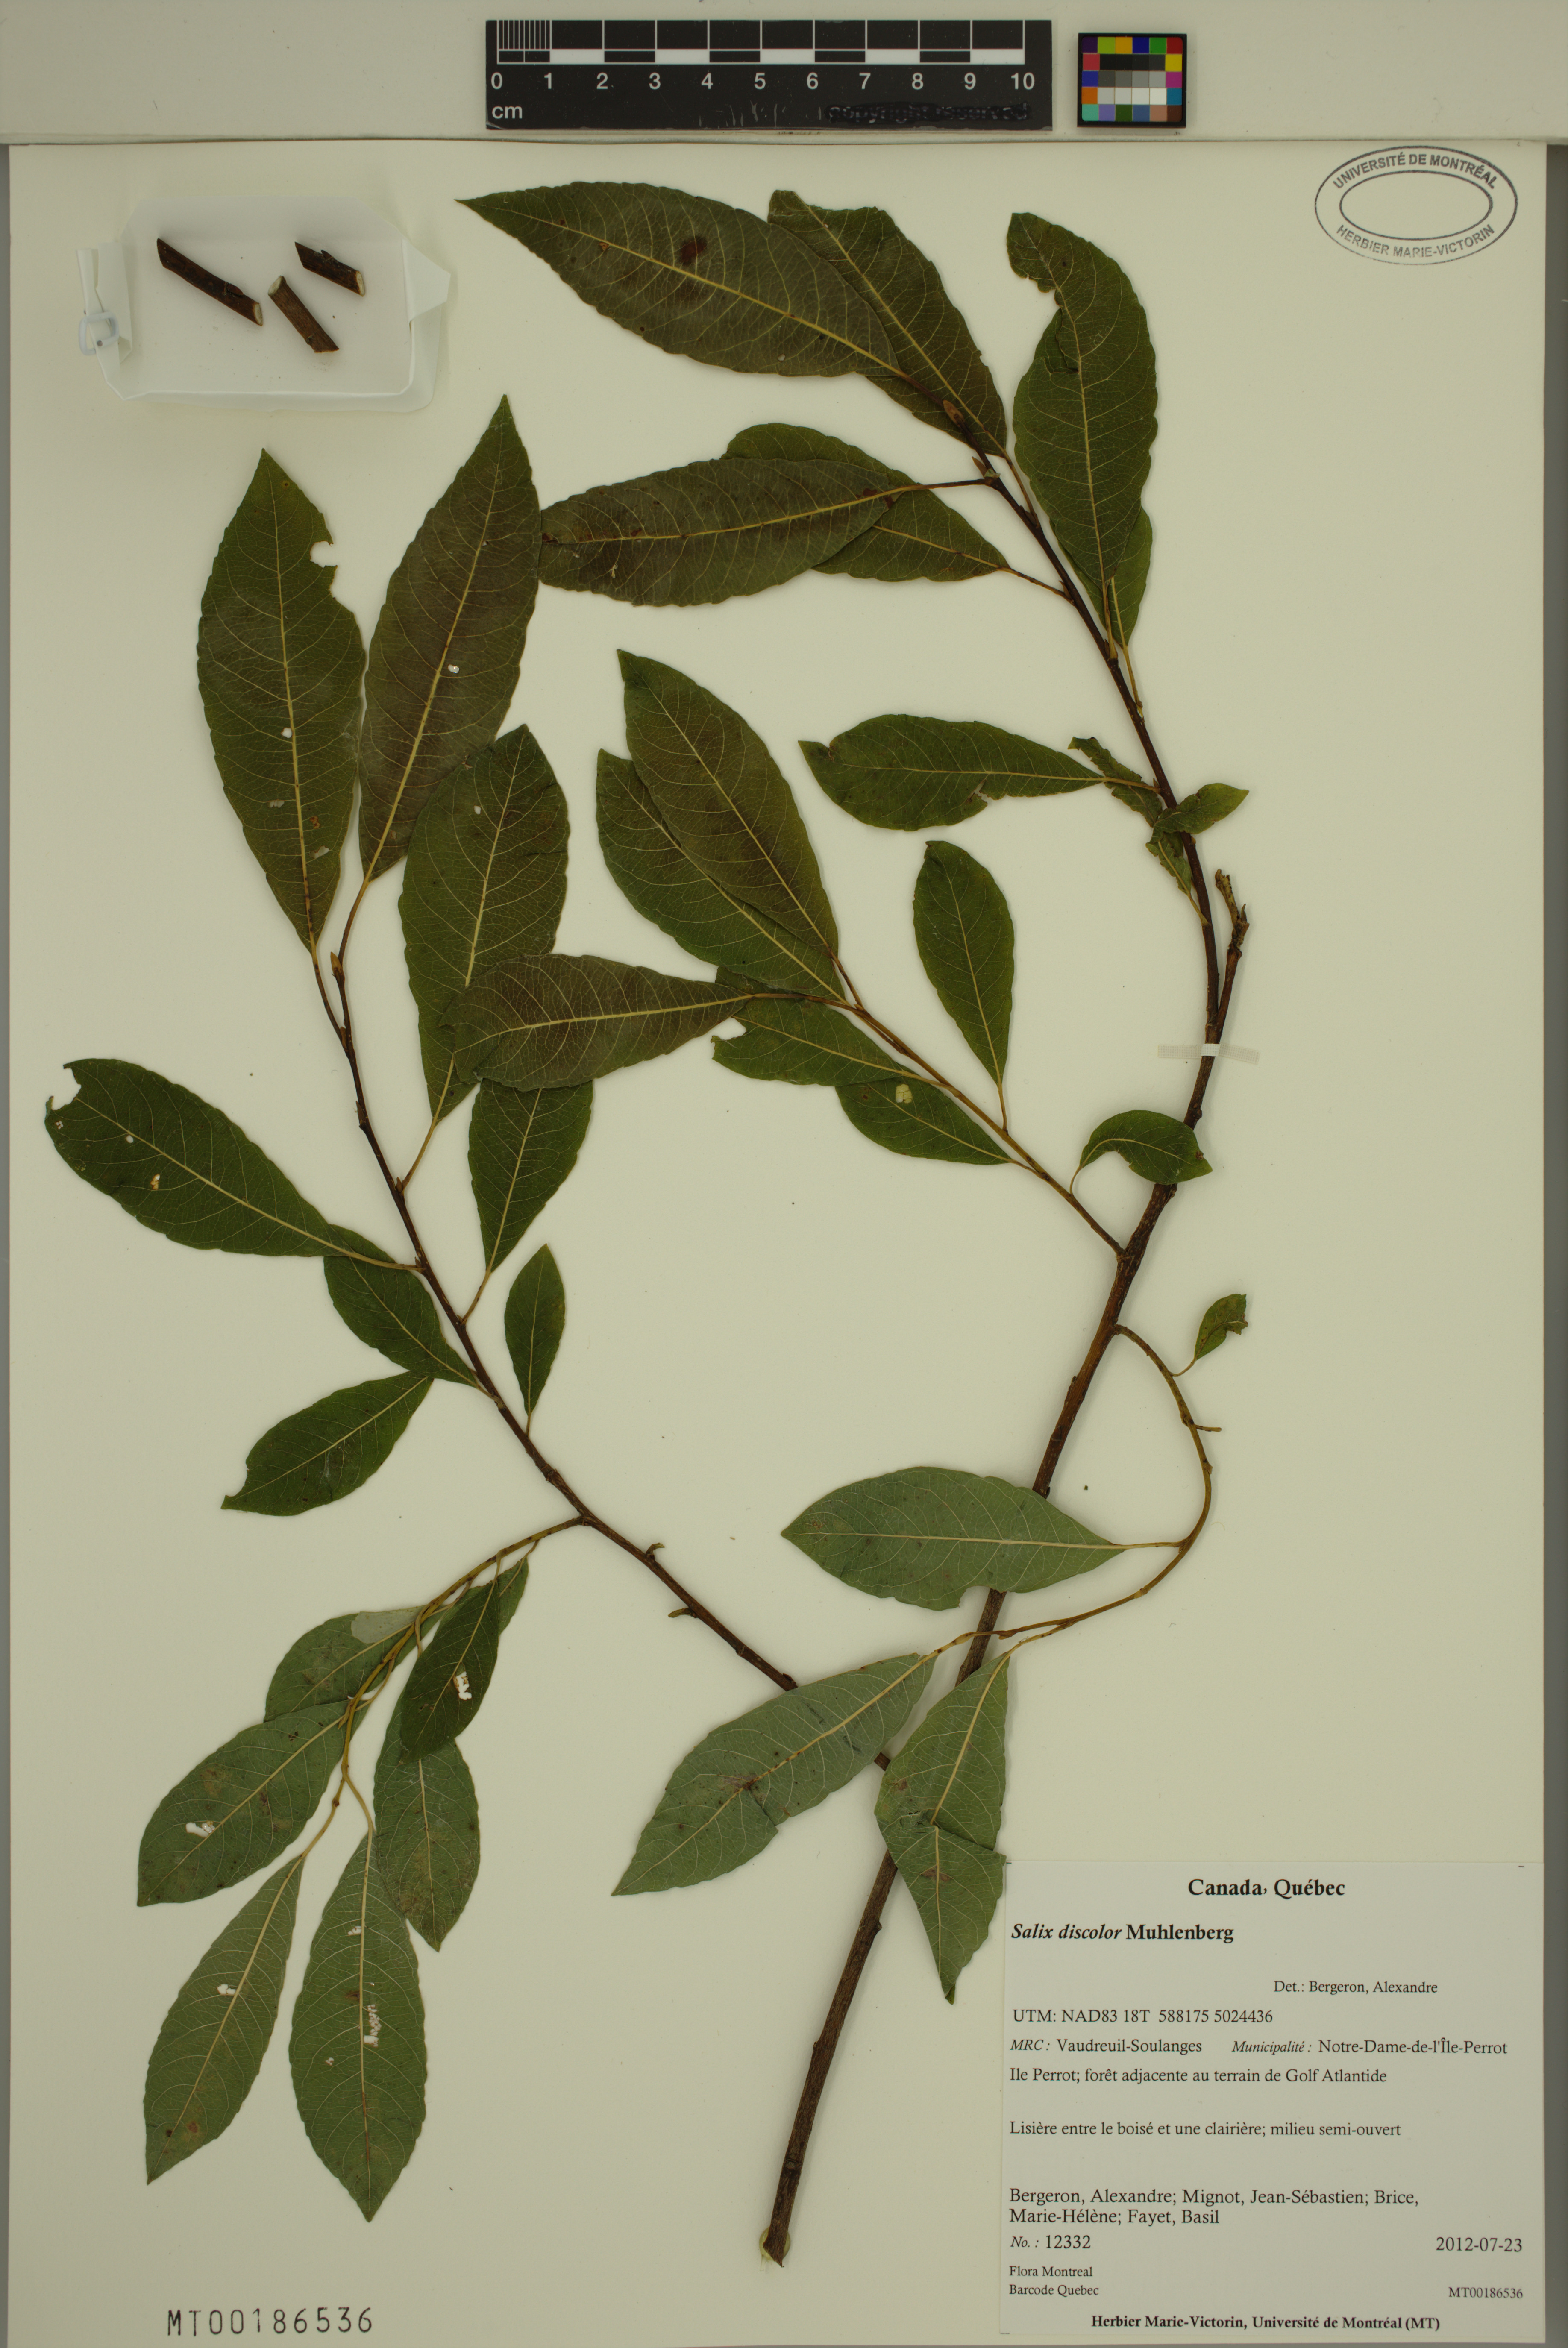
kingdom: Plantae
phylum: Tracheophyta
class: Magnoliopsida
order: Malpighiales
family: Salicaceae
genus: Salix
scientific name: Salix discolor
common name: Glaucous willow
